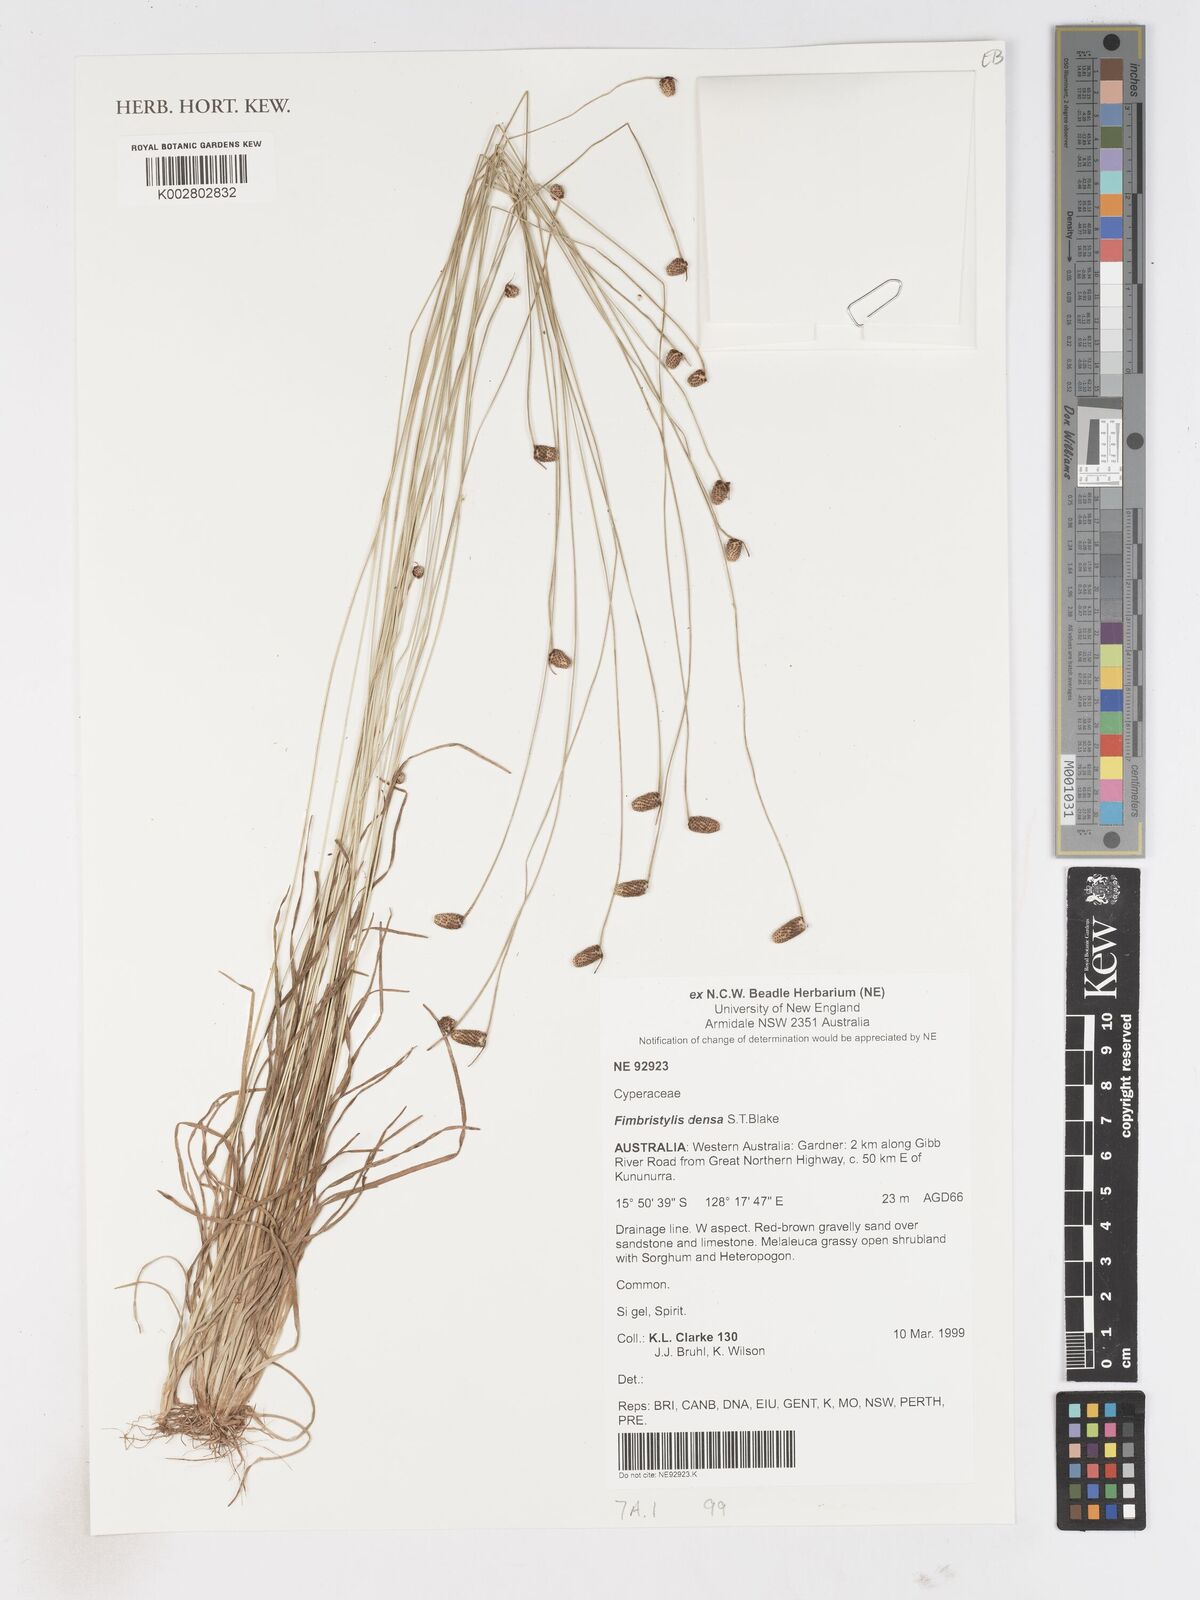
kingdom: Plantae
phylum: Tracheophyta
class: Liliopsida
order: Poales
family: Cyperaceae
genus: Fimbristylis
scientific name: Fimbristylis densa
